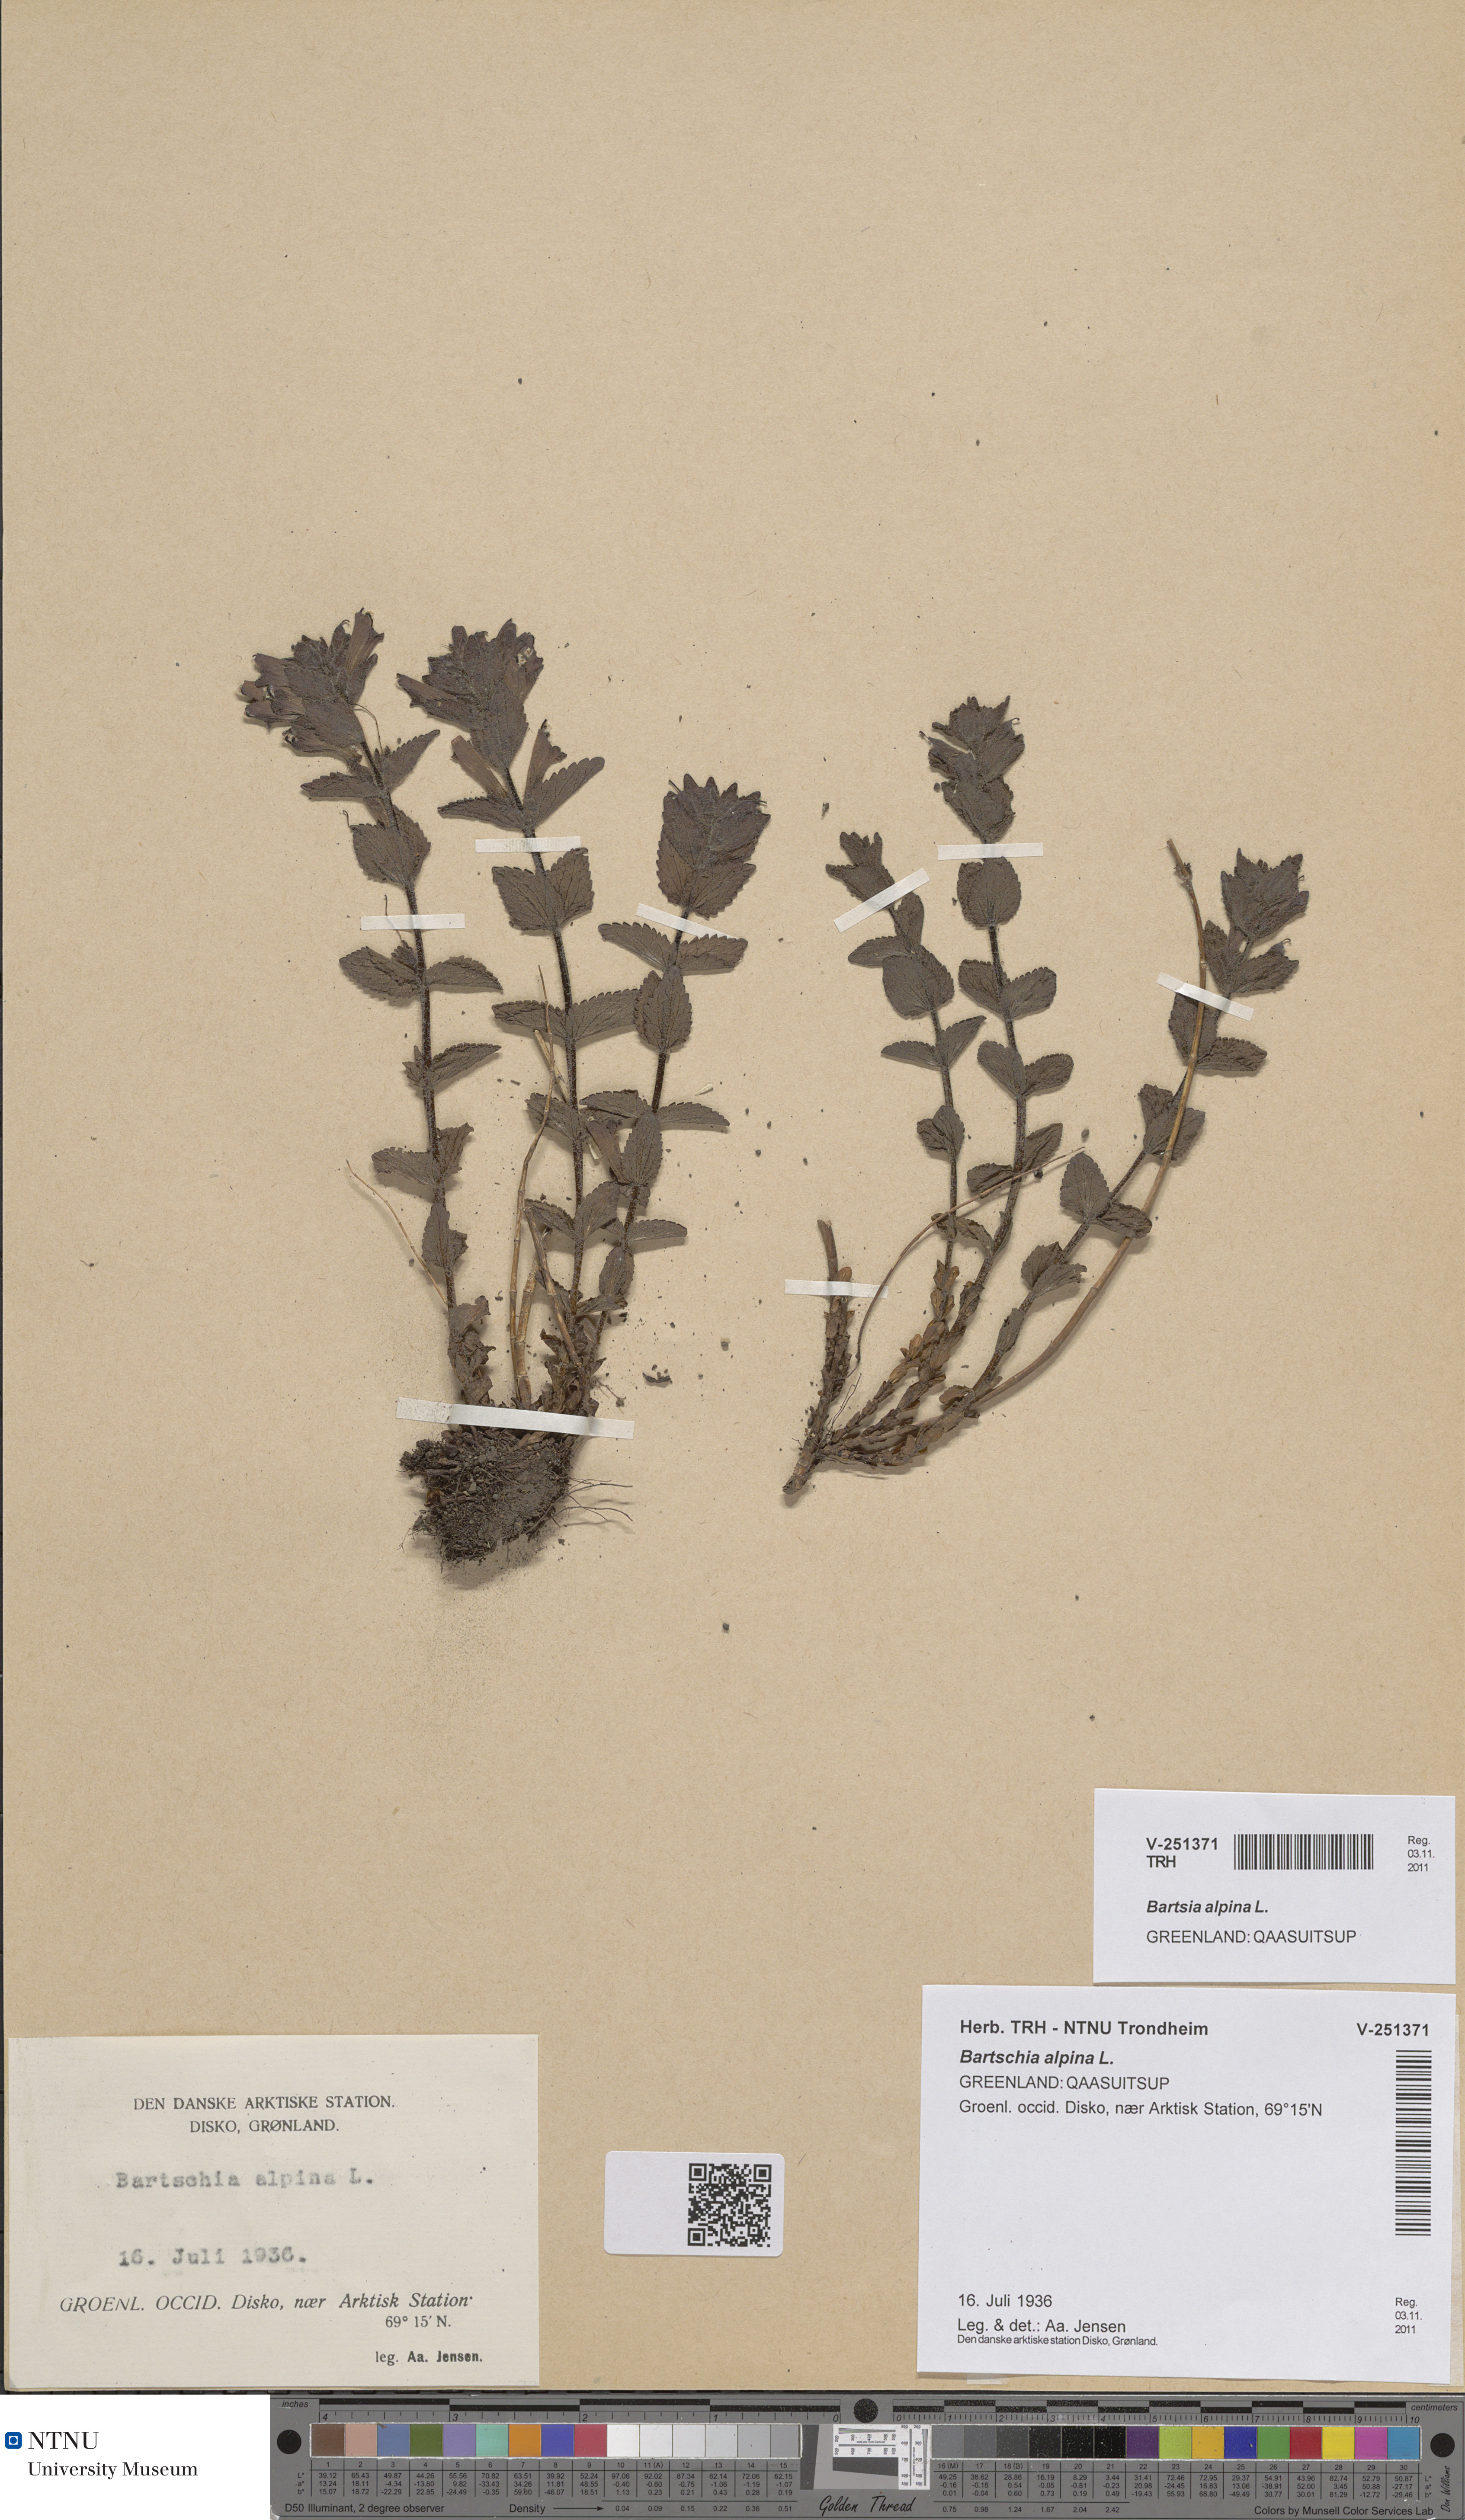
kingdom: Plantae
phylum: Tracheophyta
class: Magnoliopsida
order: Lamiales
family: Orobanchaceae
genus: Bartsia
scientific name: Bartsia alpina
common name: Alpine bartsia
